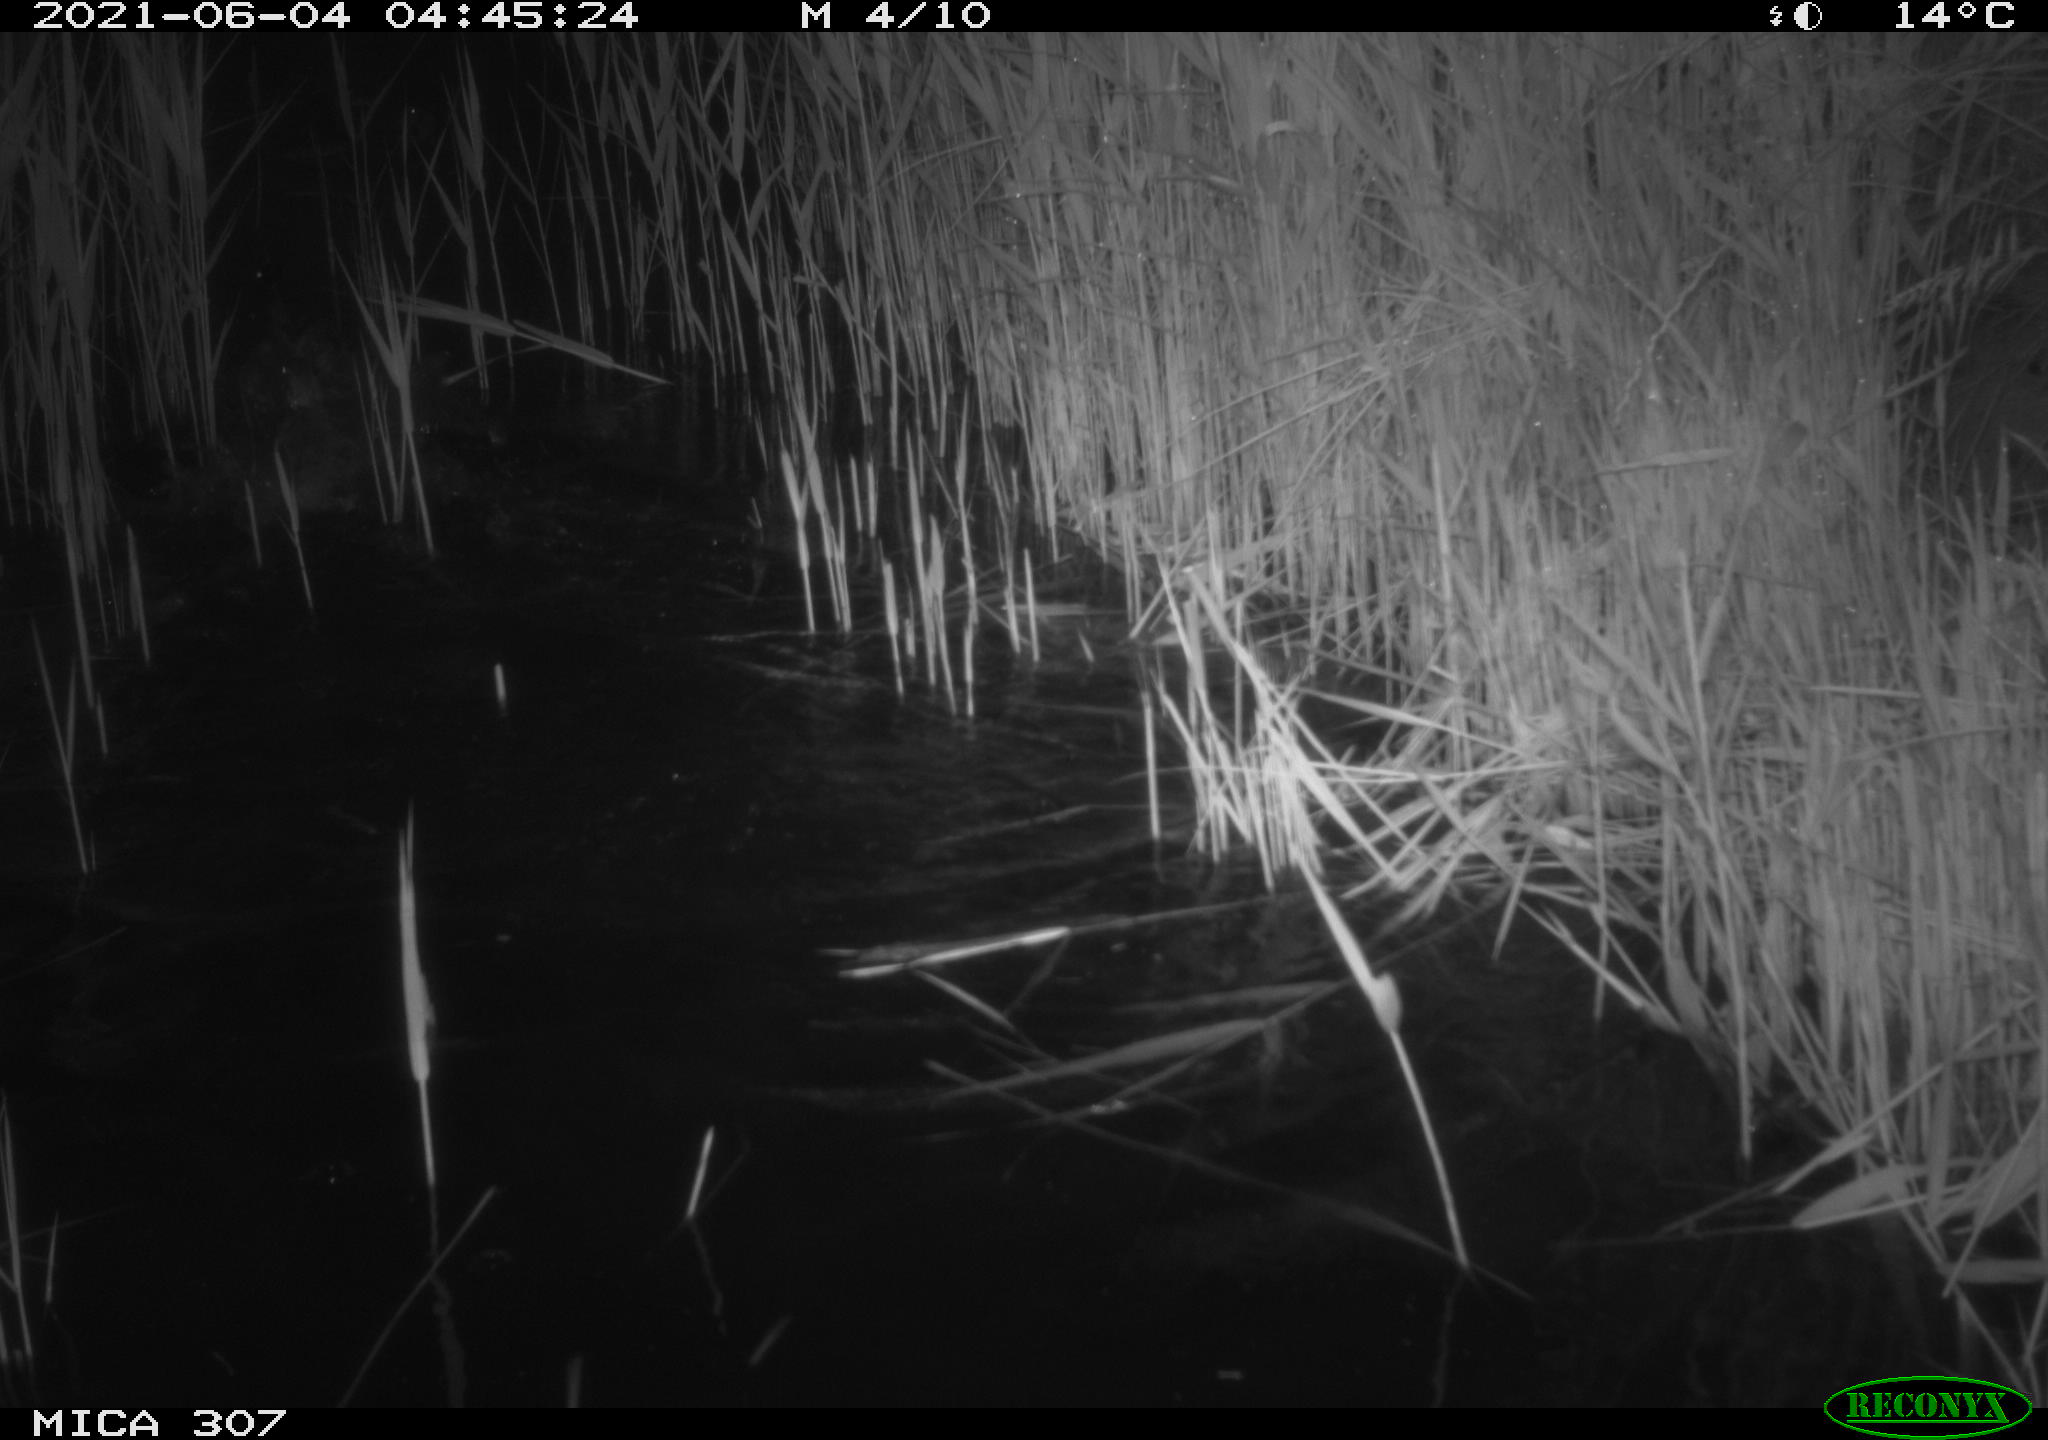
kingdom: Animalia
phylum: Chordata
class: Aves
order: Anseriformes
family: Anatidae
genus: Anas
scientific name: Anas platyrhynchos
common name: Mallard
